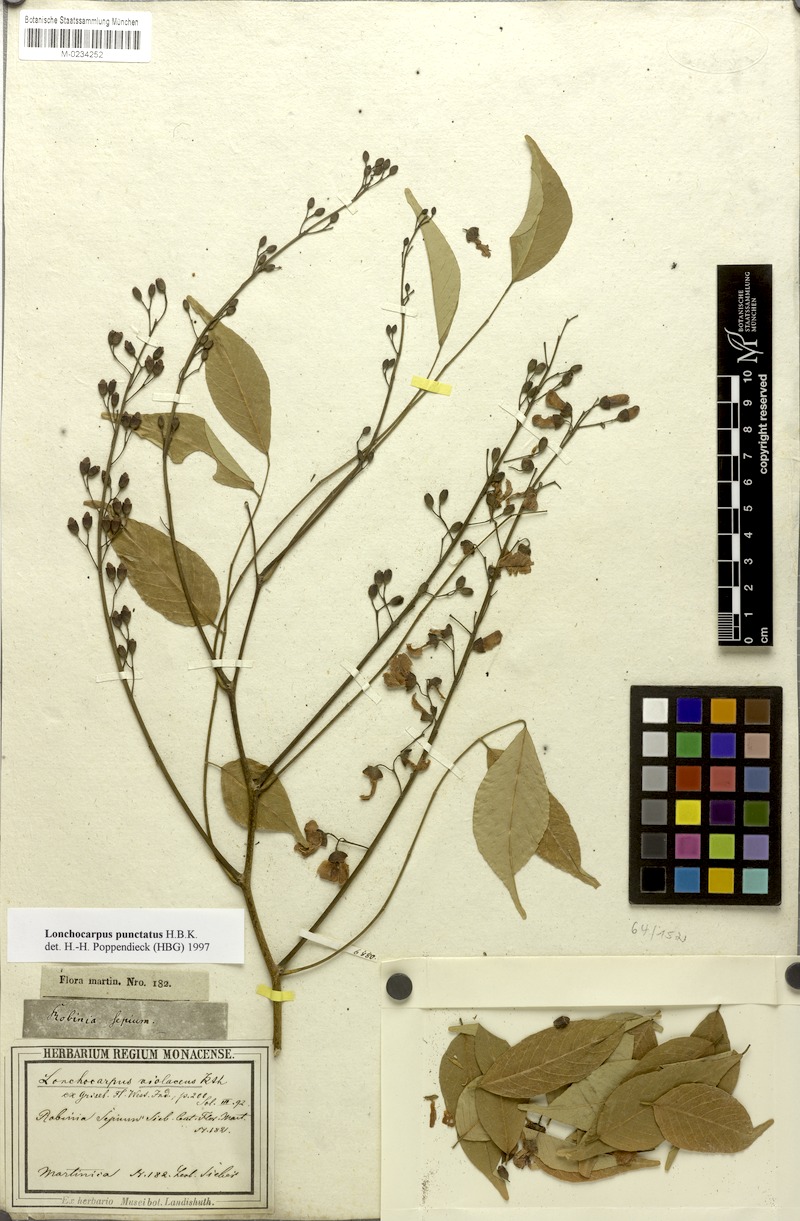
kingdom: Plantae
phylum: Tracheophyta
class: Magnoliopsida
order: Fabales
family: Fabaceae
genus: Lonchocarpus
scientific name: Lonchocarpus longistylus
